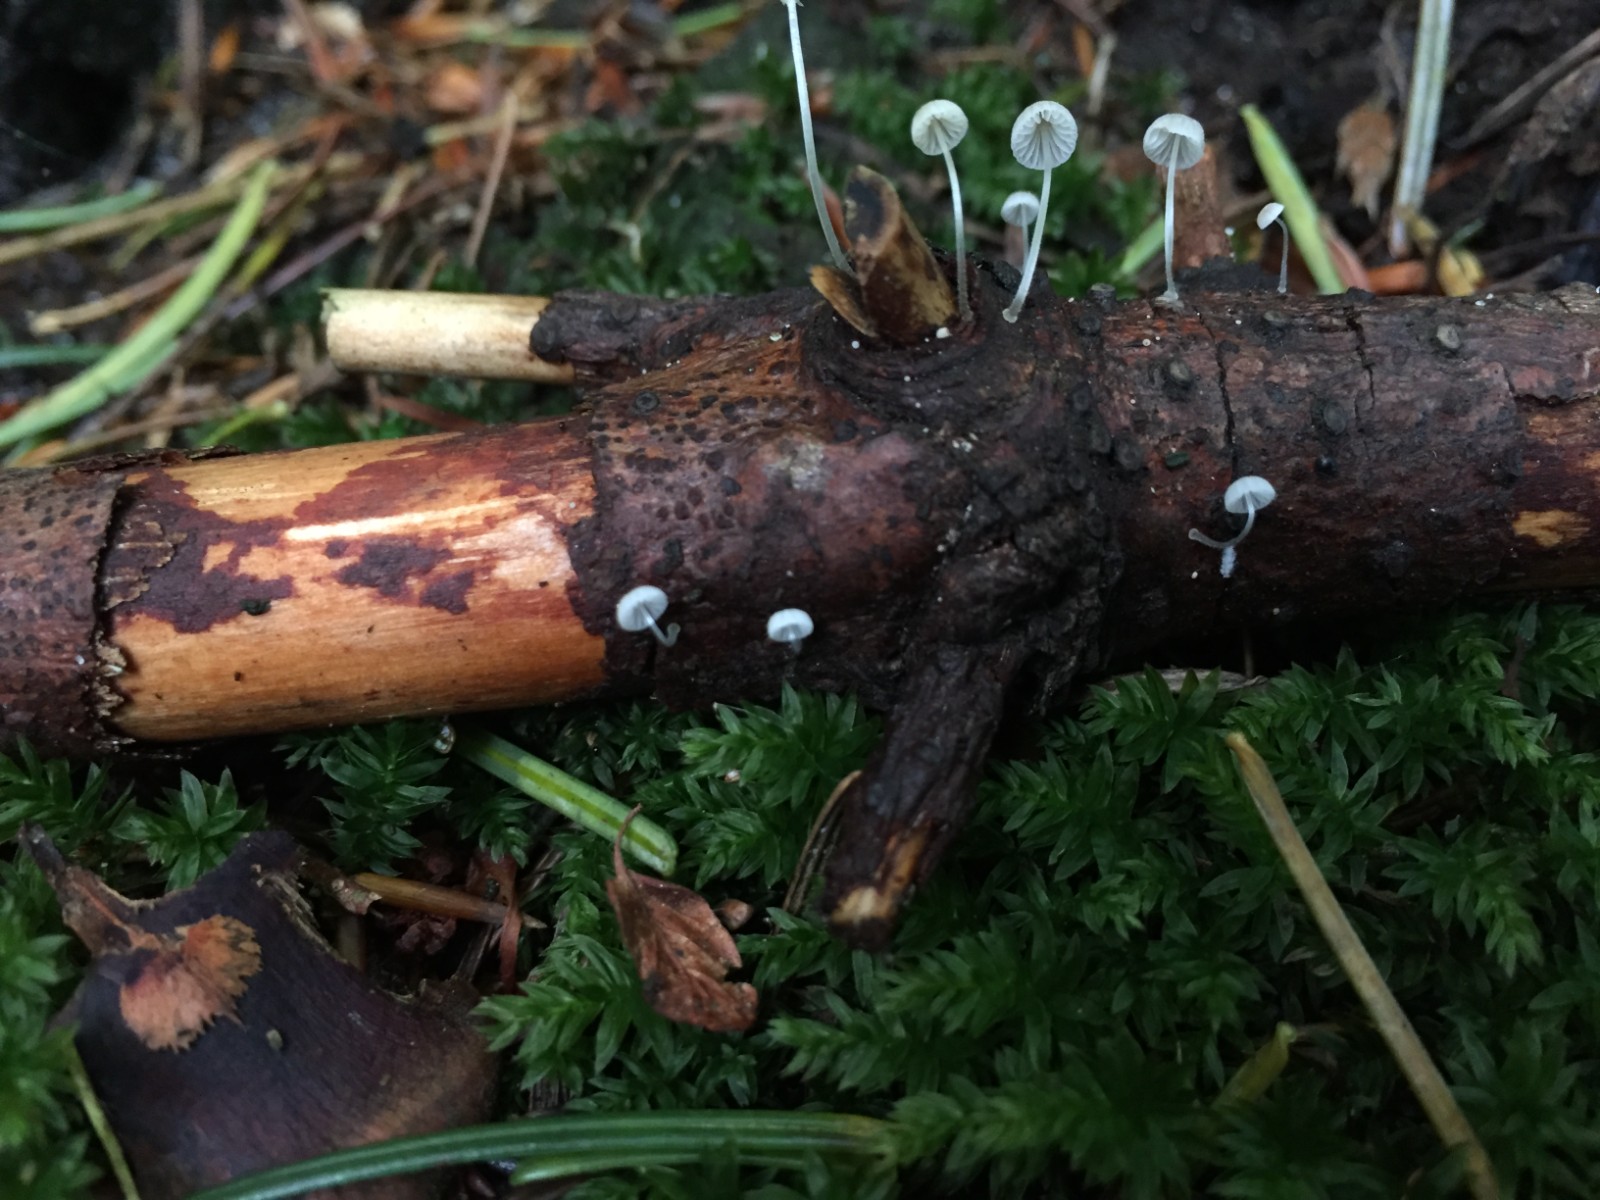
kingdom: Fungi
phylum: Basidiomycota
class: Agaricomycetes
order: Agaricales
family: Mycenaceae
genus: Mycena
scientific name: Mycena tenerrima
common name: pudret huesvamp
